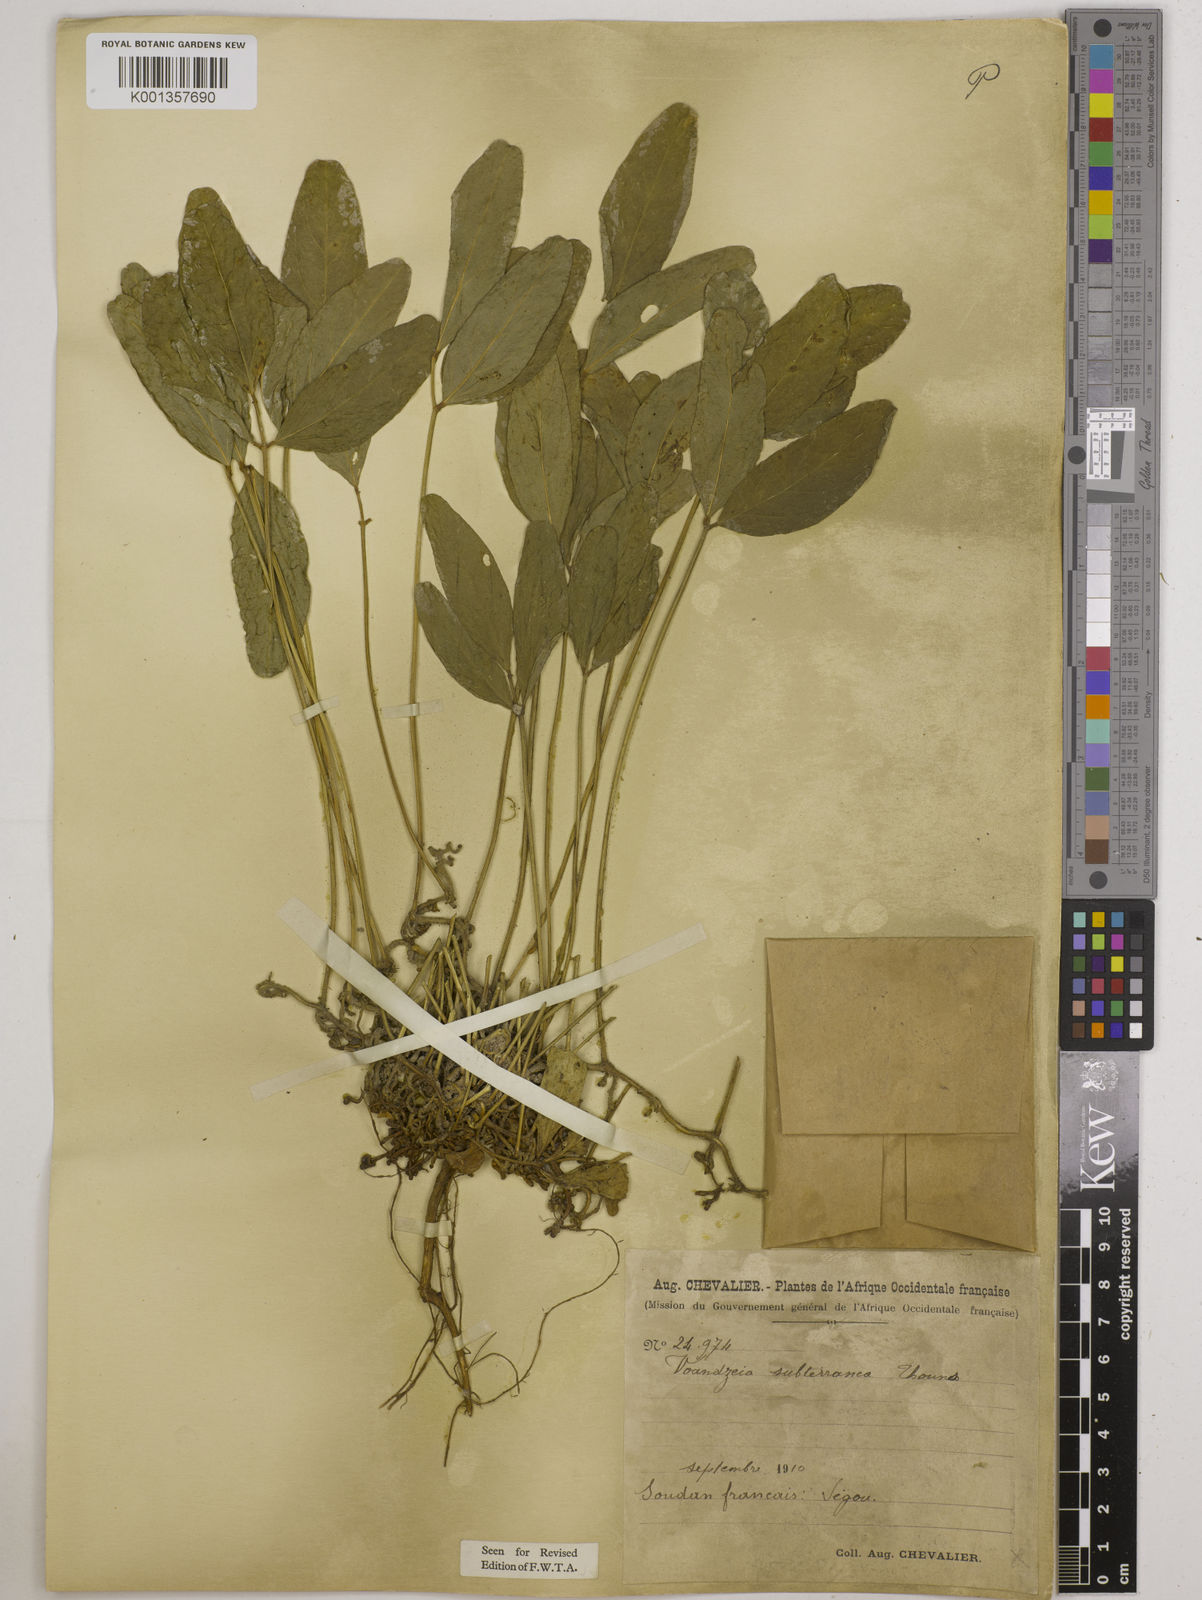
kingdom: Plantae
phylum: Tracheophyta
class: Magnoliopsida
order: Fabales
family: Fabaceae
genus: Vigna
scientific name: Vigna subterranea
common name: Bambara groundnut
